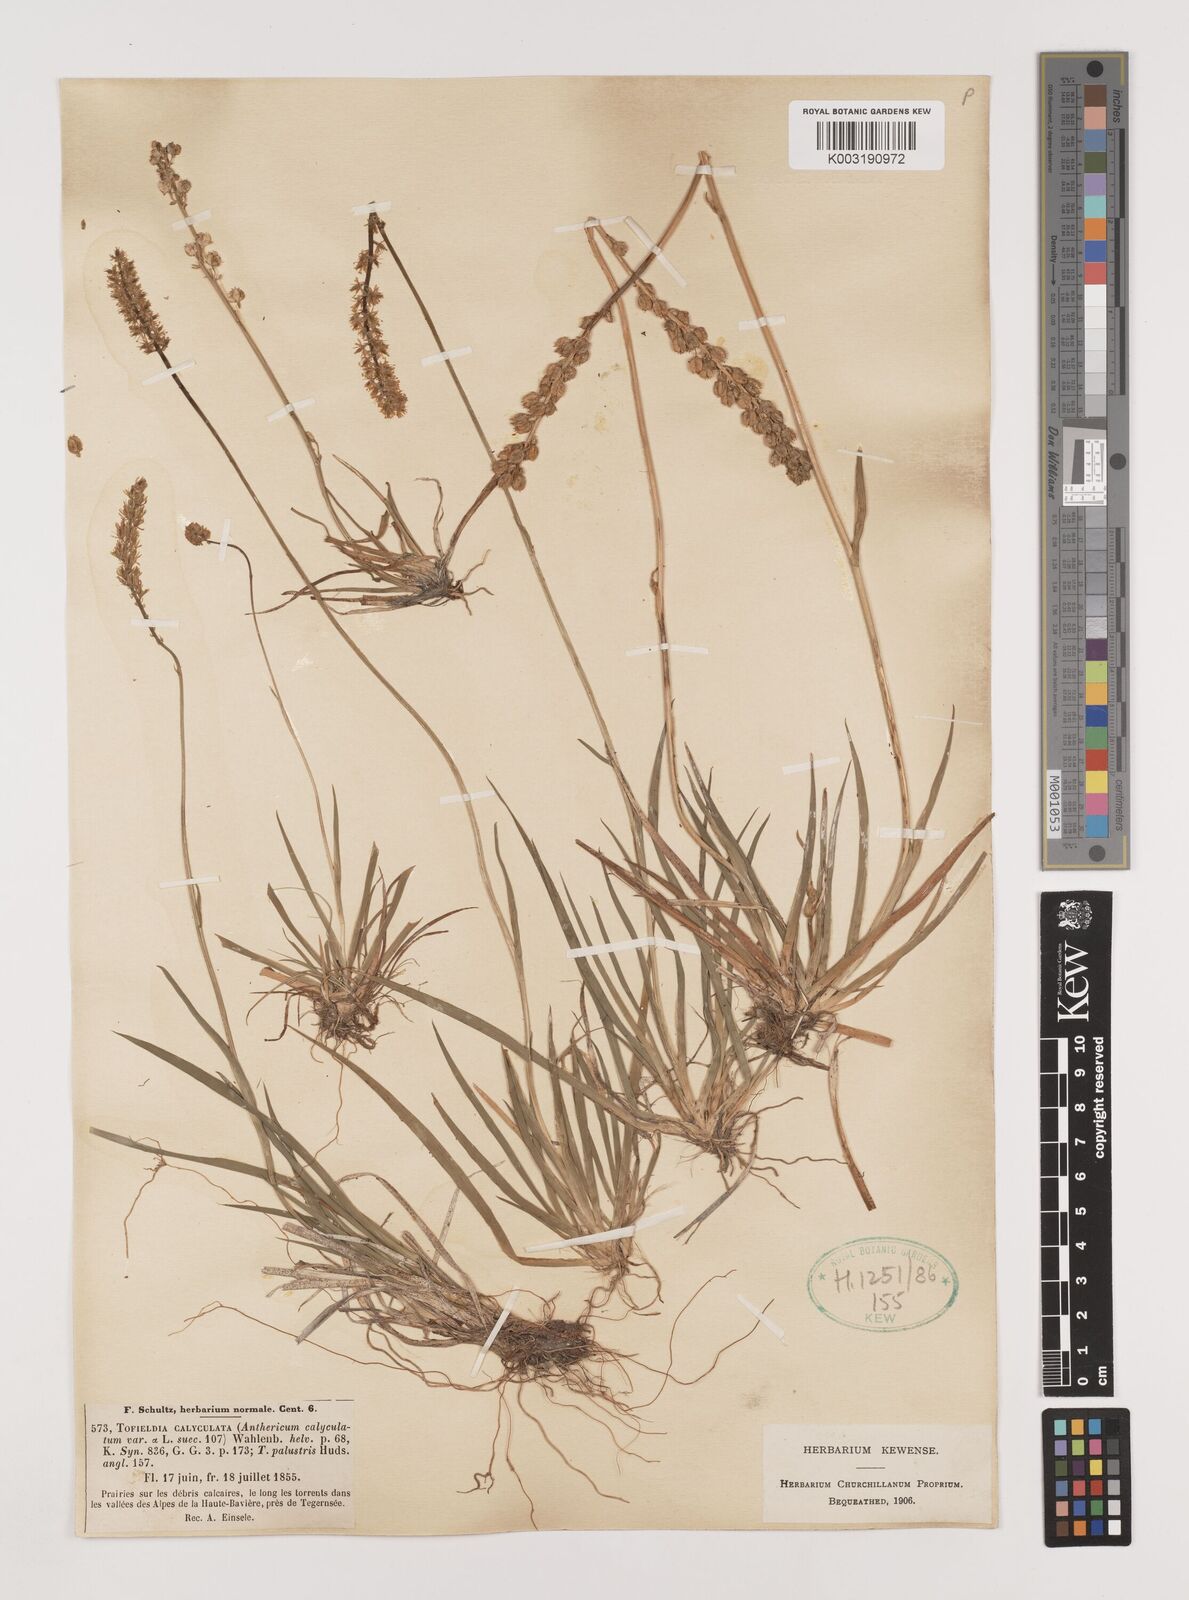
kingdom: Plantae
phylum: Tracheophyta
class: Liliopsida
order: Alismatales
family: Tofieldiaceae
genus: Tofieldia
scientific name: Tofieldia calyculata
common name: German-asphodel
